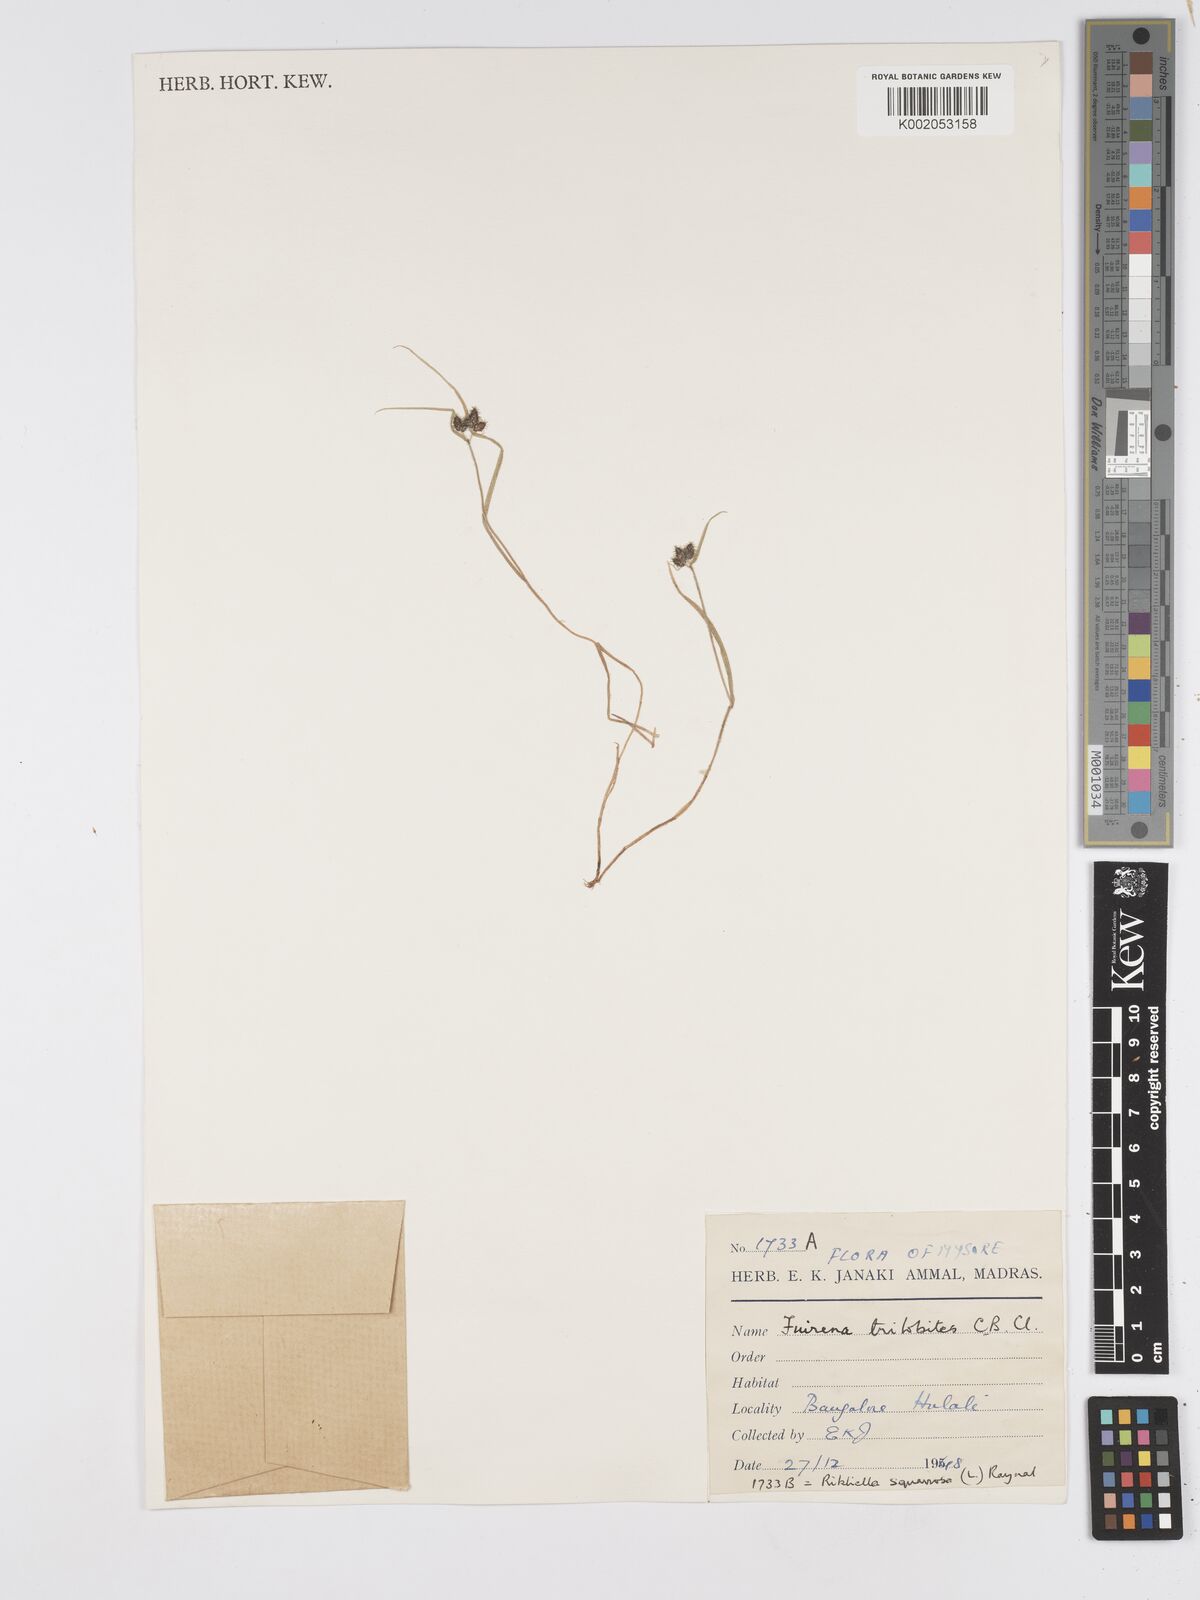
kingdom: Plantae
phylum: Tracheophyta
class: Liliopsida
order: Poales
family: Cyperaceae
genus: Fuirena
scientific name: Fuirena trilobites
